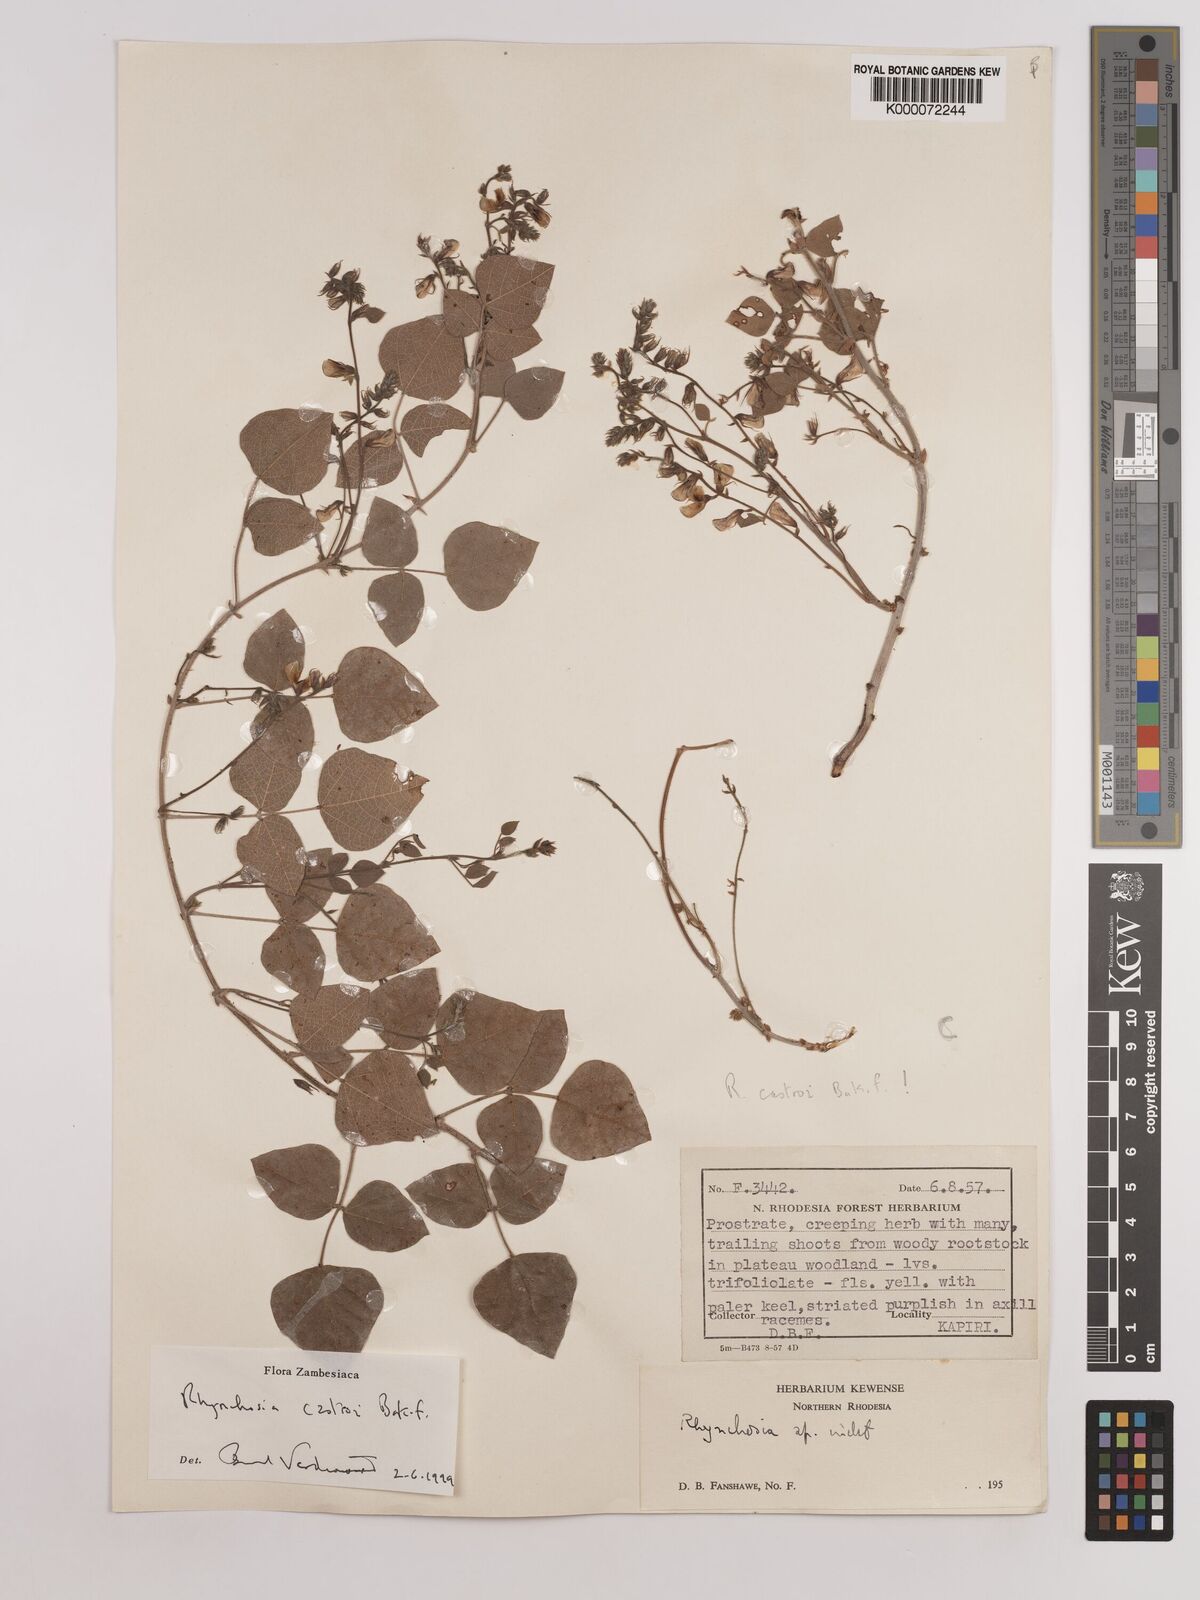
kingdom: Plantae
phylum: Tracheophyta
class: Magnoliopsida
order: Fabales
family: Fabaceae
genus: Rhynchosia
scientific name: Rhynchosia castroi
